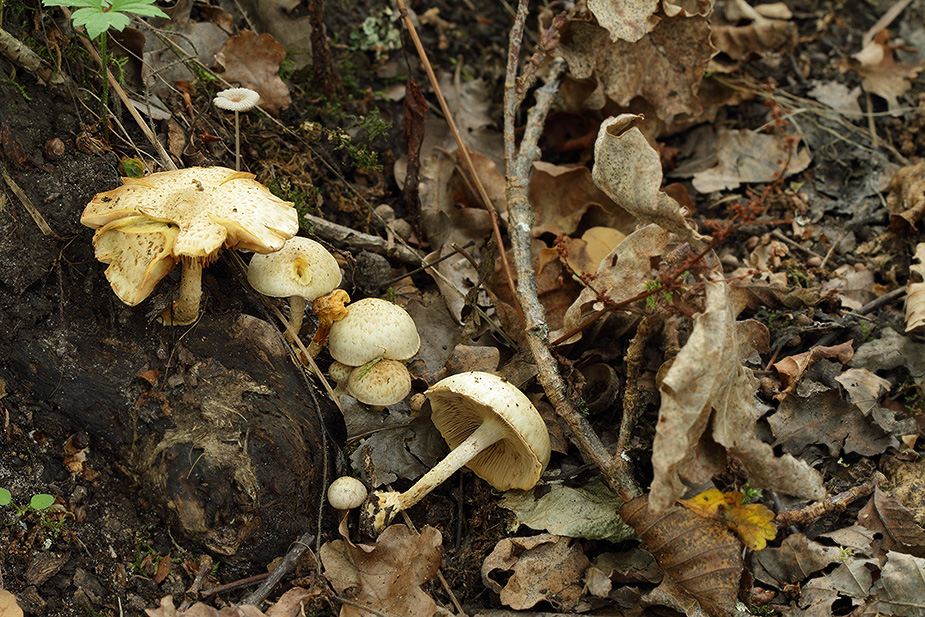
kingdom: Fungi
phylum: Basidiomycota
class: Agaricomycetes
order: Agaricales
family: Strophariaceae
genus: Pholiota
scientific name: Pholiota gummosa
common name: grøngul skælhat
